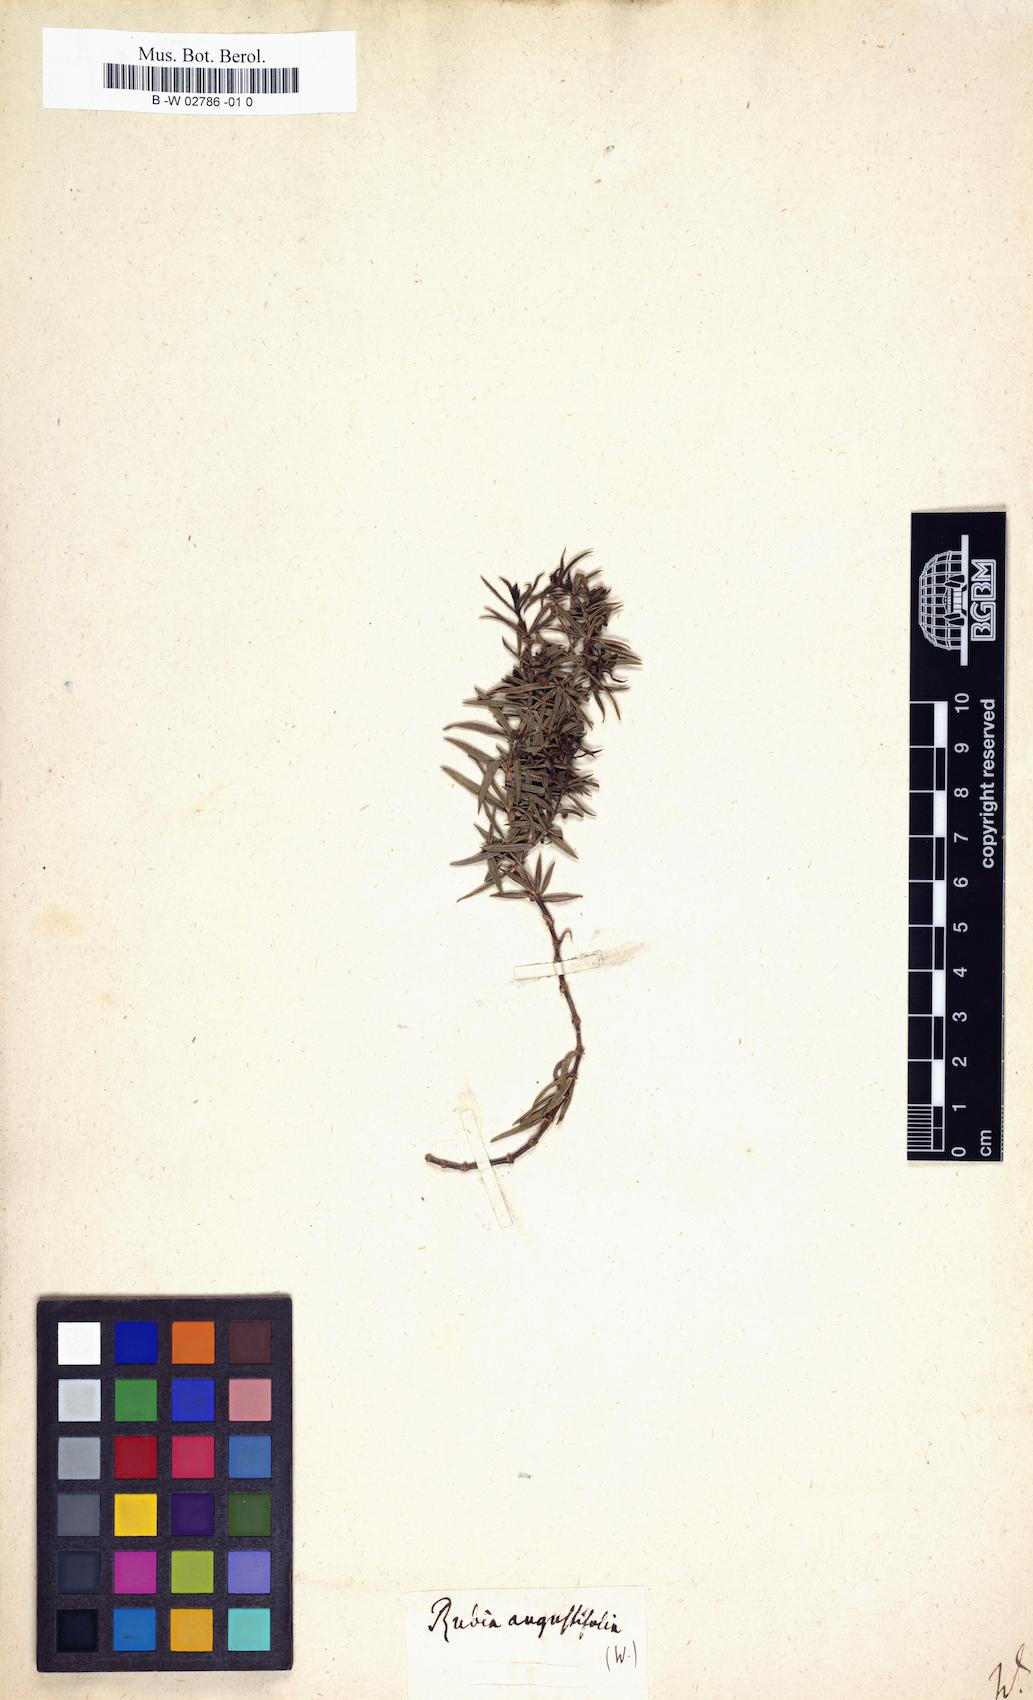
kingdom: Plantae
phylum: Tracheophyta
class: Magnoliopsida
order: Gentianales
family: Rubiaceae
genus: Rubia
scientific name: Rubia peregrina
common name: Wild madder
